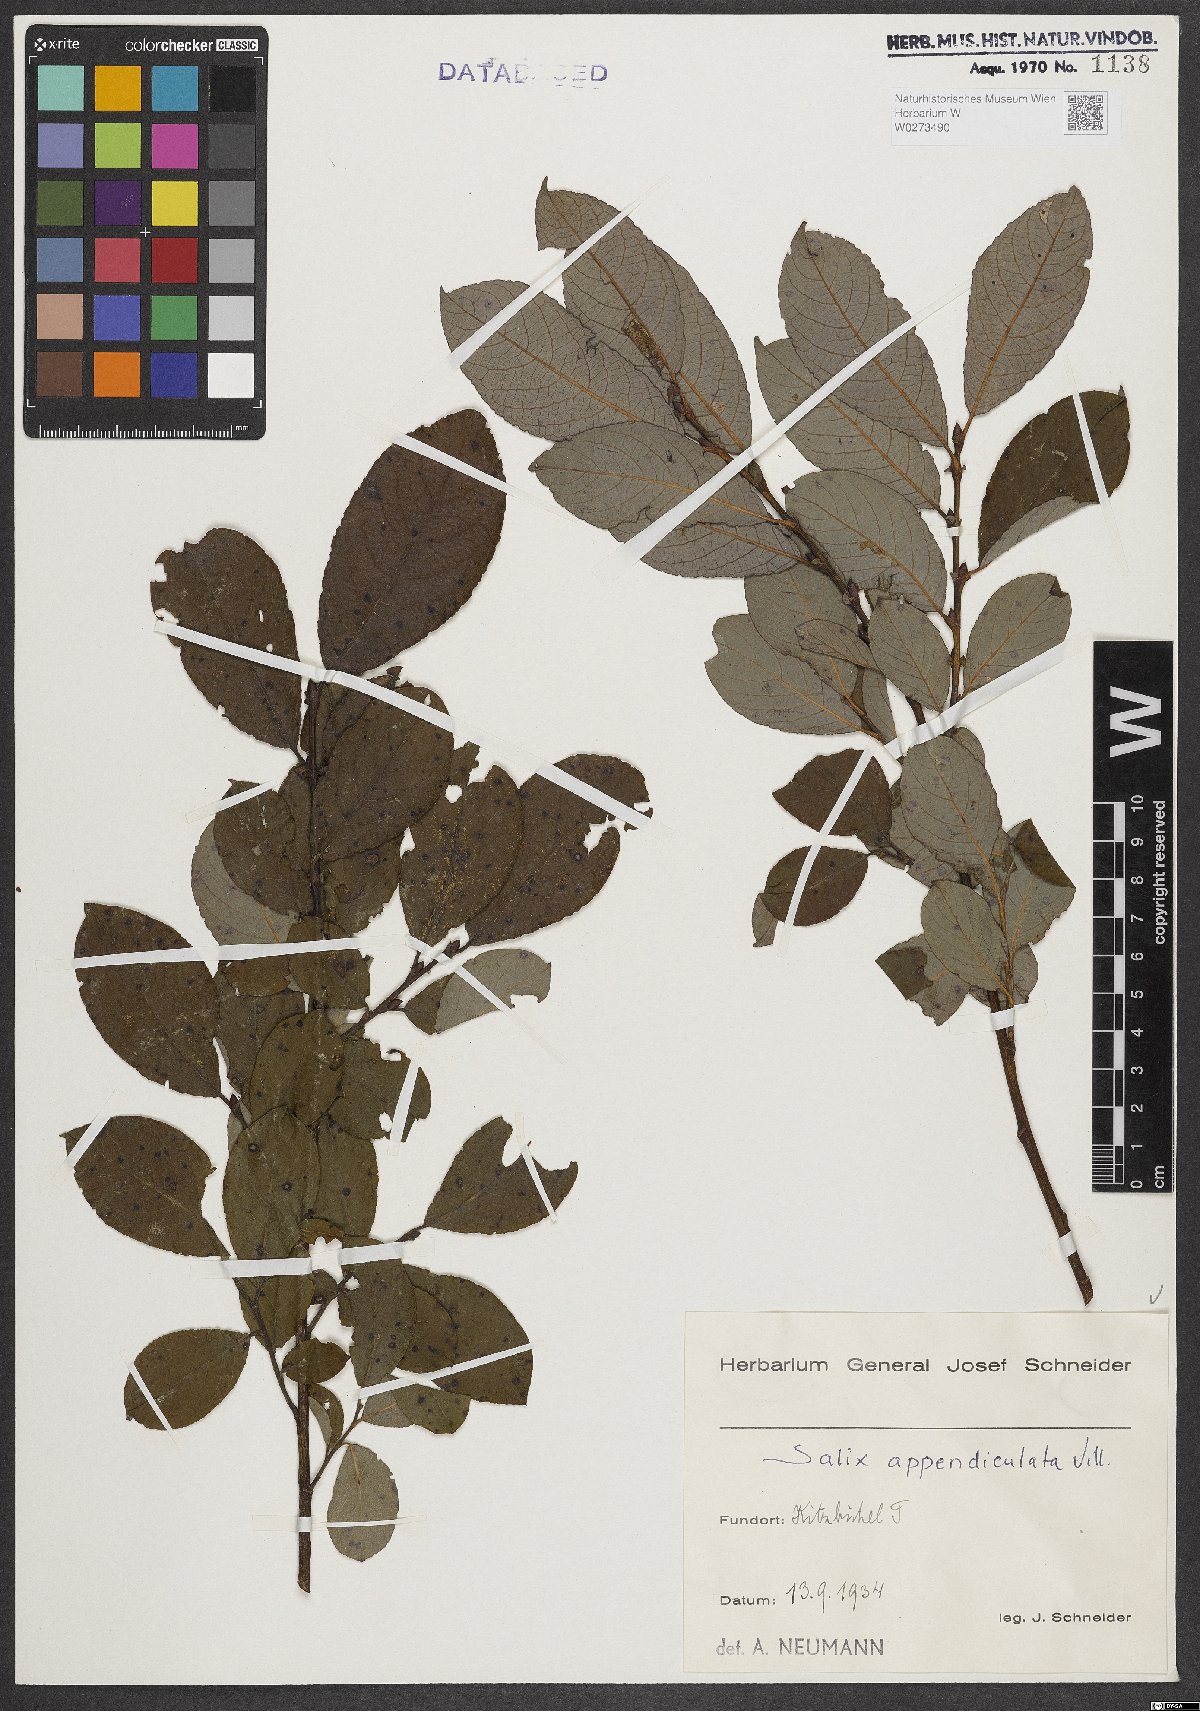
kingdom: Plantae
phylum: Tracheophyta
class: Magnoliopsida
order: Malpighiales
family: Salicaceae
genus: Salix
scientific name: Salix appendiculata
